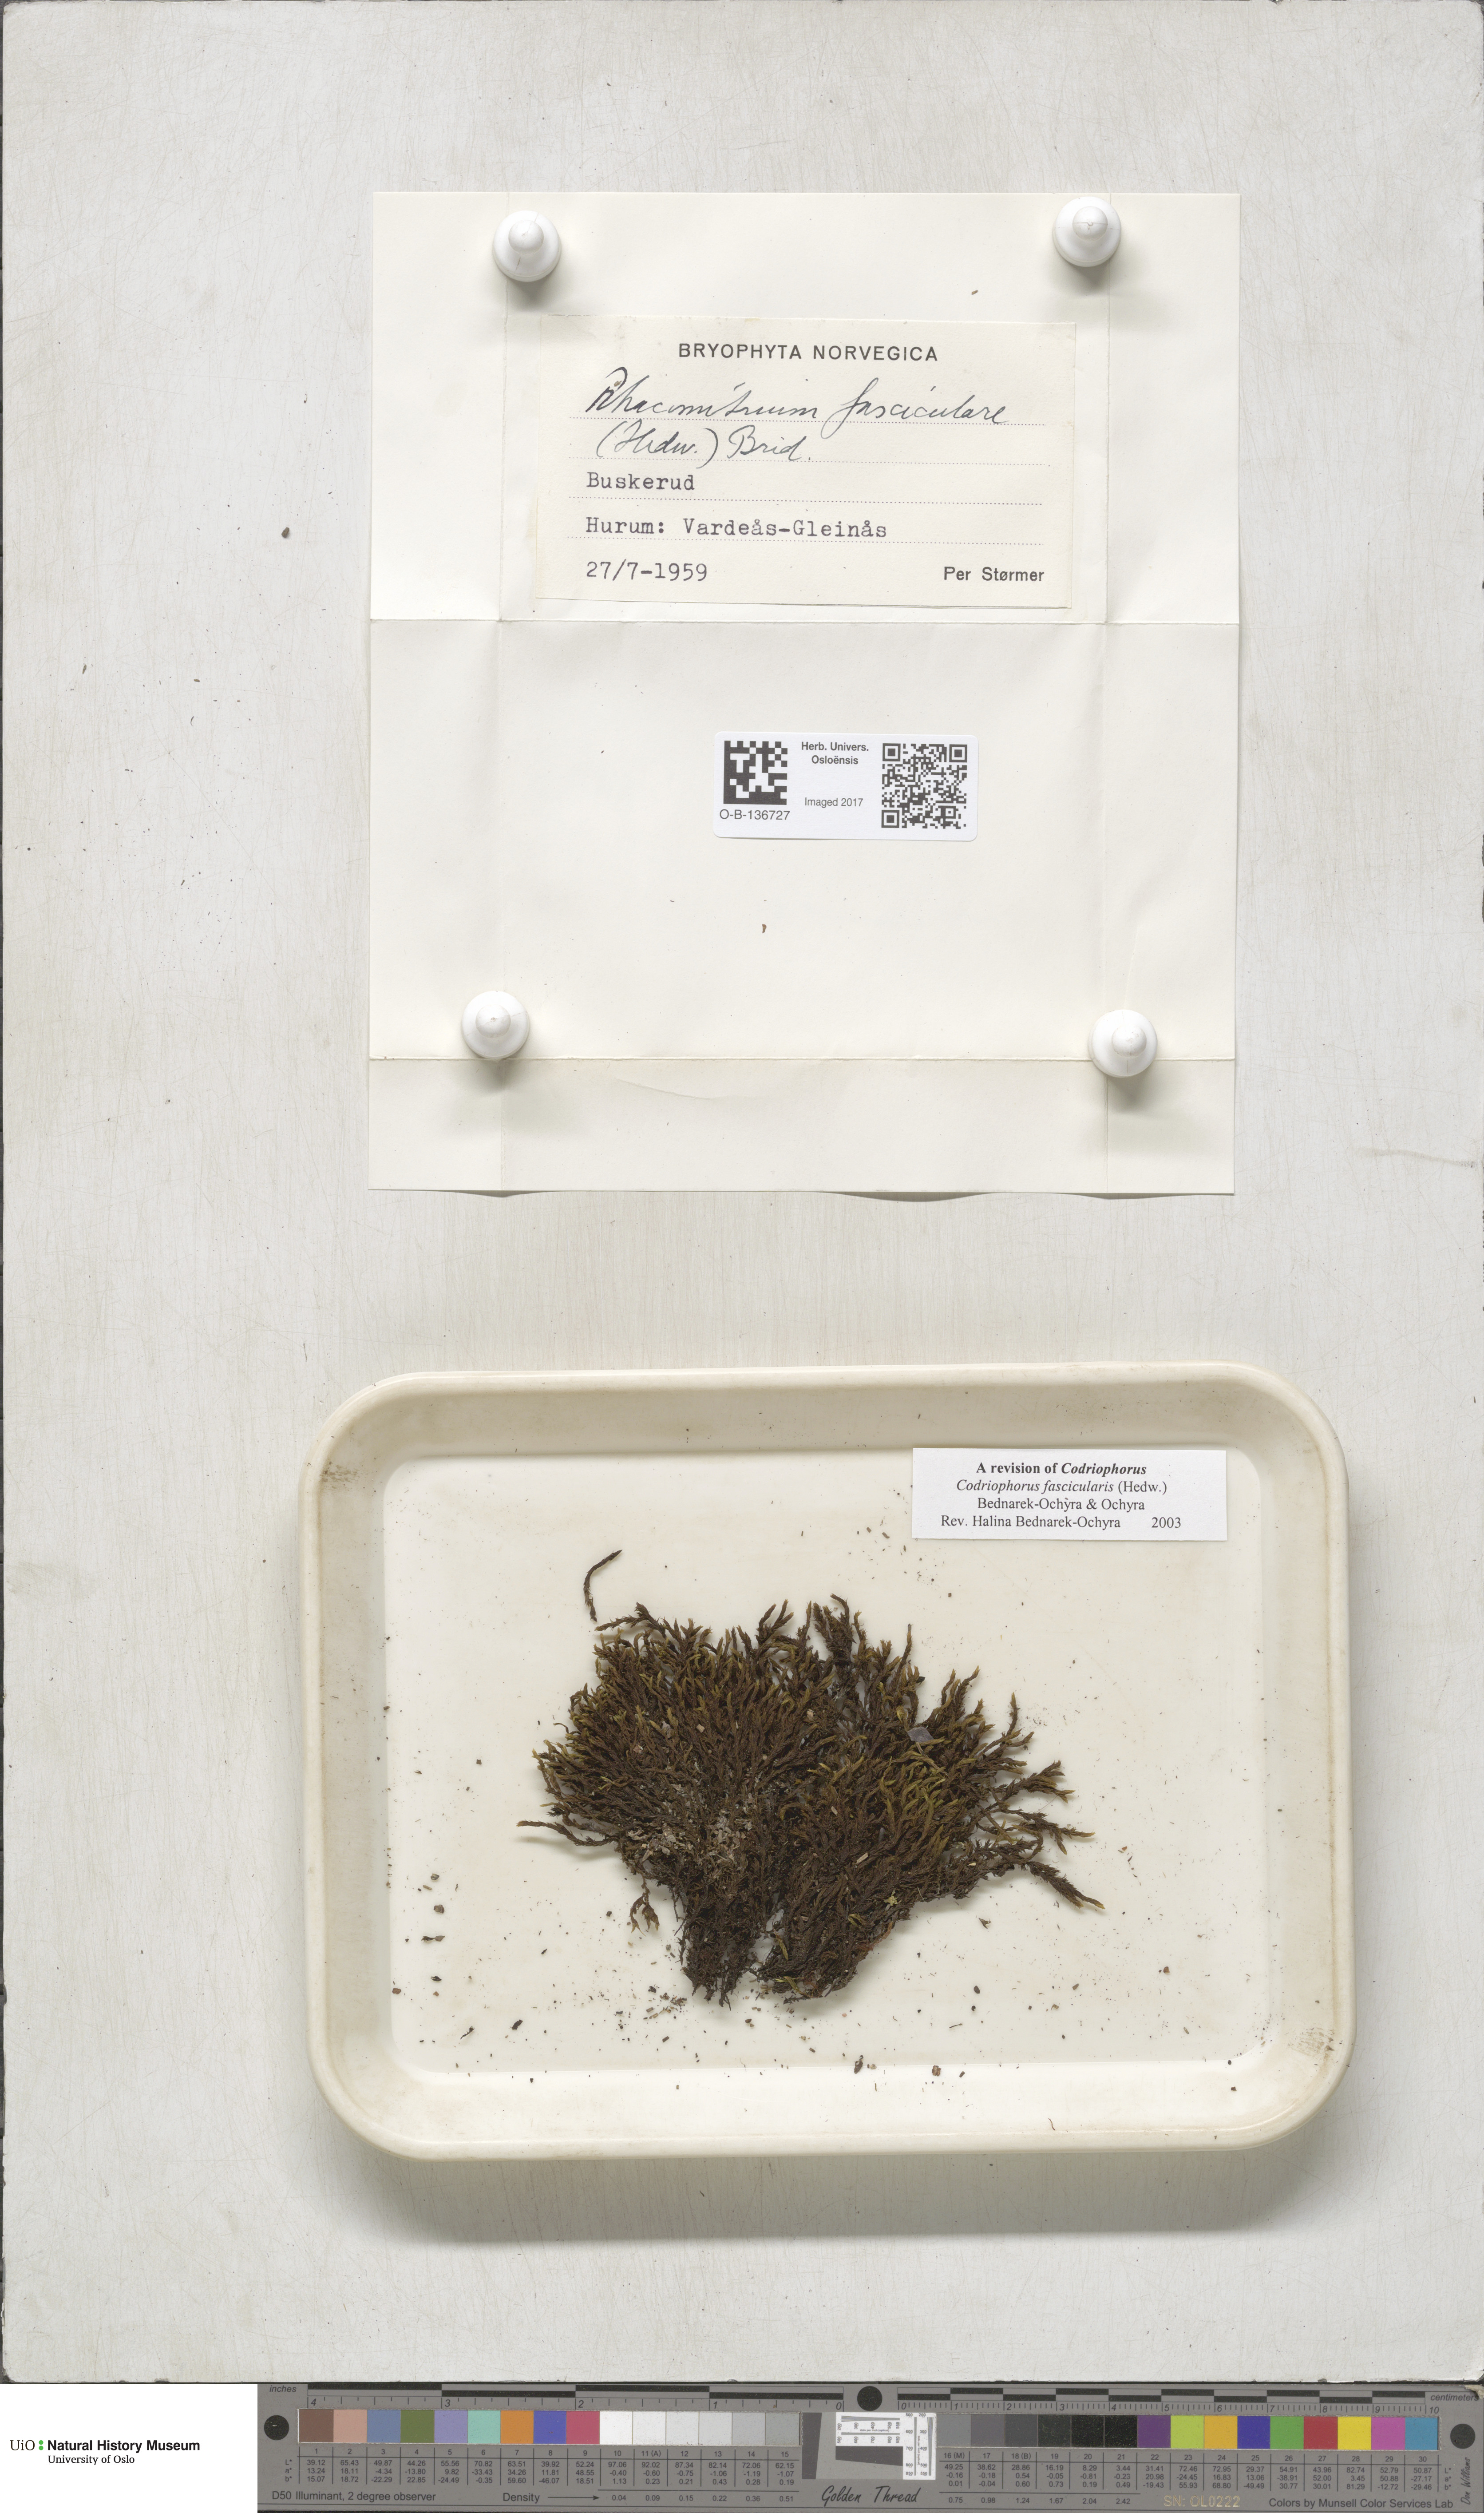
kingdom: Plantae
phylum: Bryophyta
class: Bryopsida
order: Grimmiales
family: Grimmiaceae
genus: Dilutineuron
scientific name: Dilutineuron fasciculare
